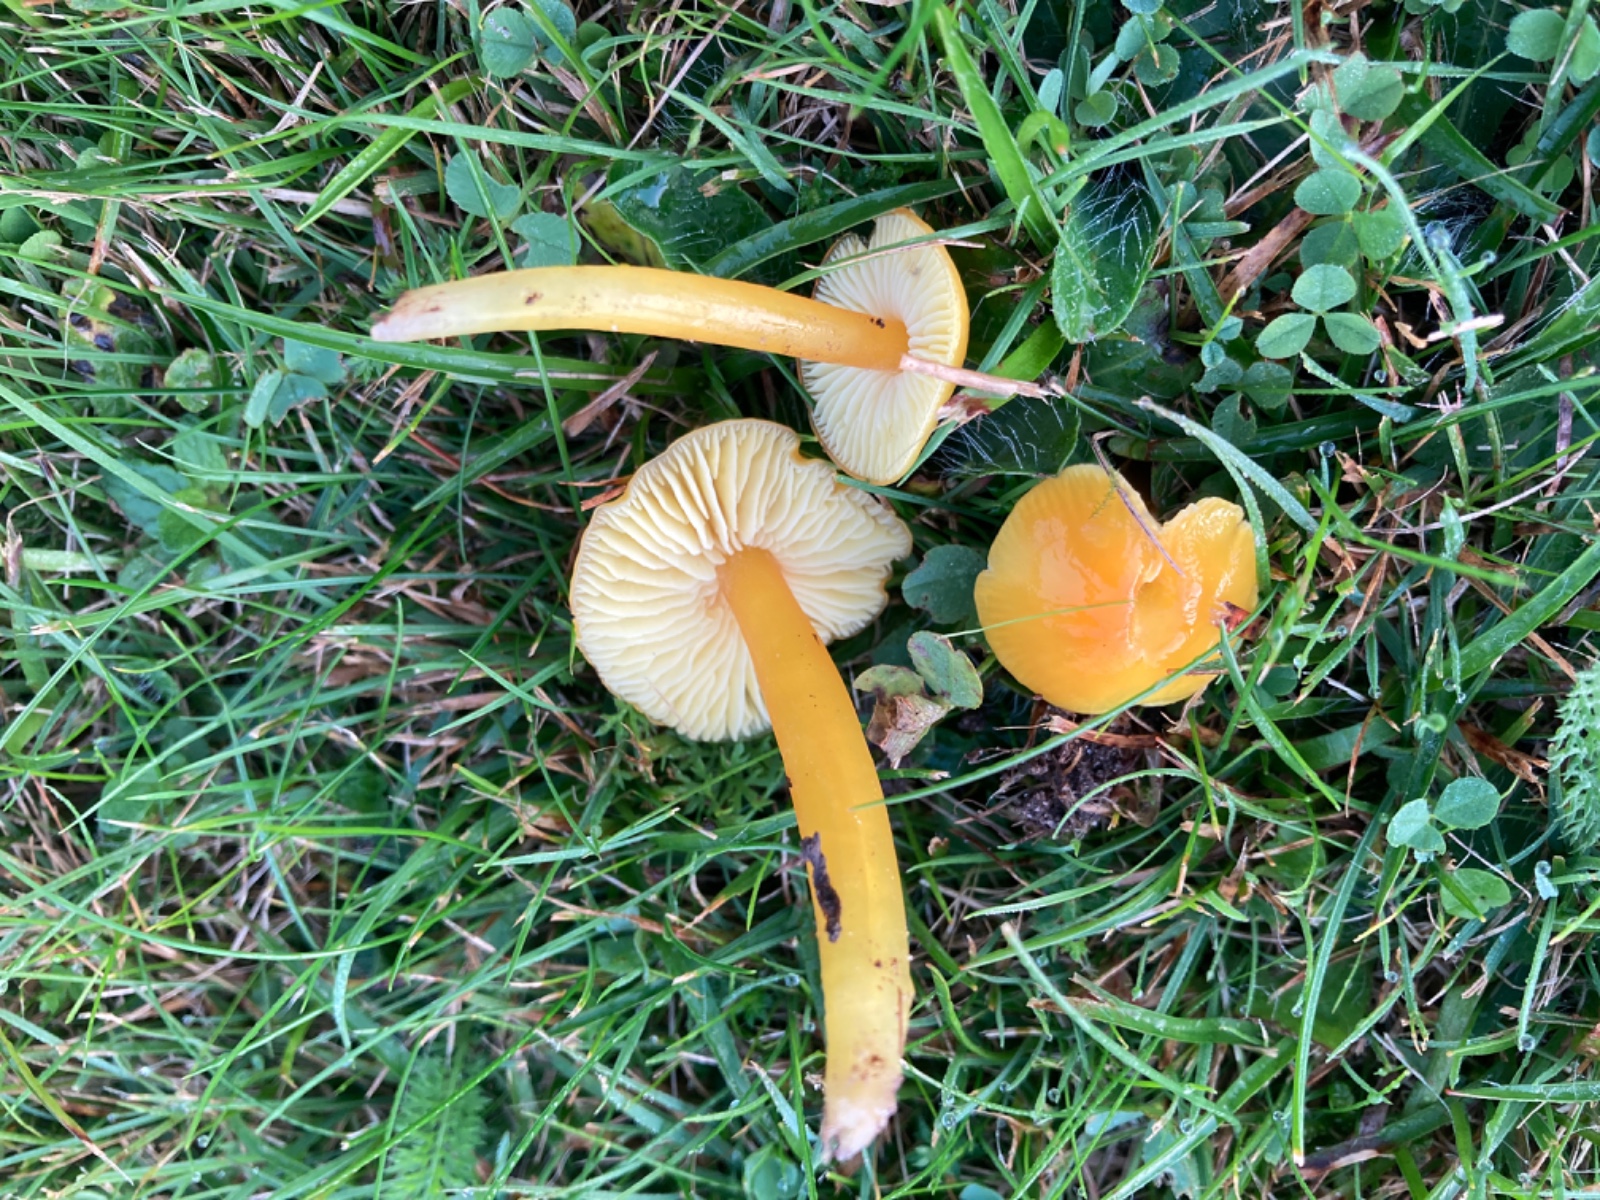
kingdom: Fungi
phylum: Basidiomycota
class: Agaricomycetes
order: Agaricales
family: Hygrophoraceae
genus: Hygrocybe
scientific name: Hygrocybe chlorophana
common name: gul vokshat
